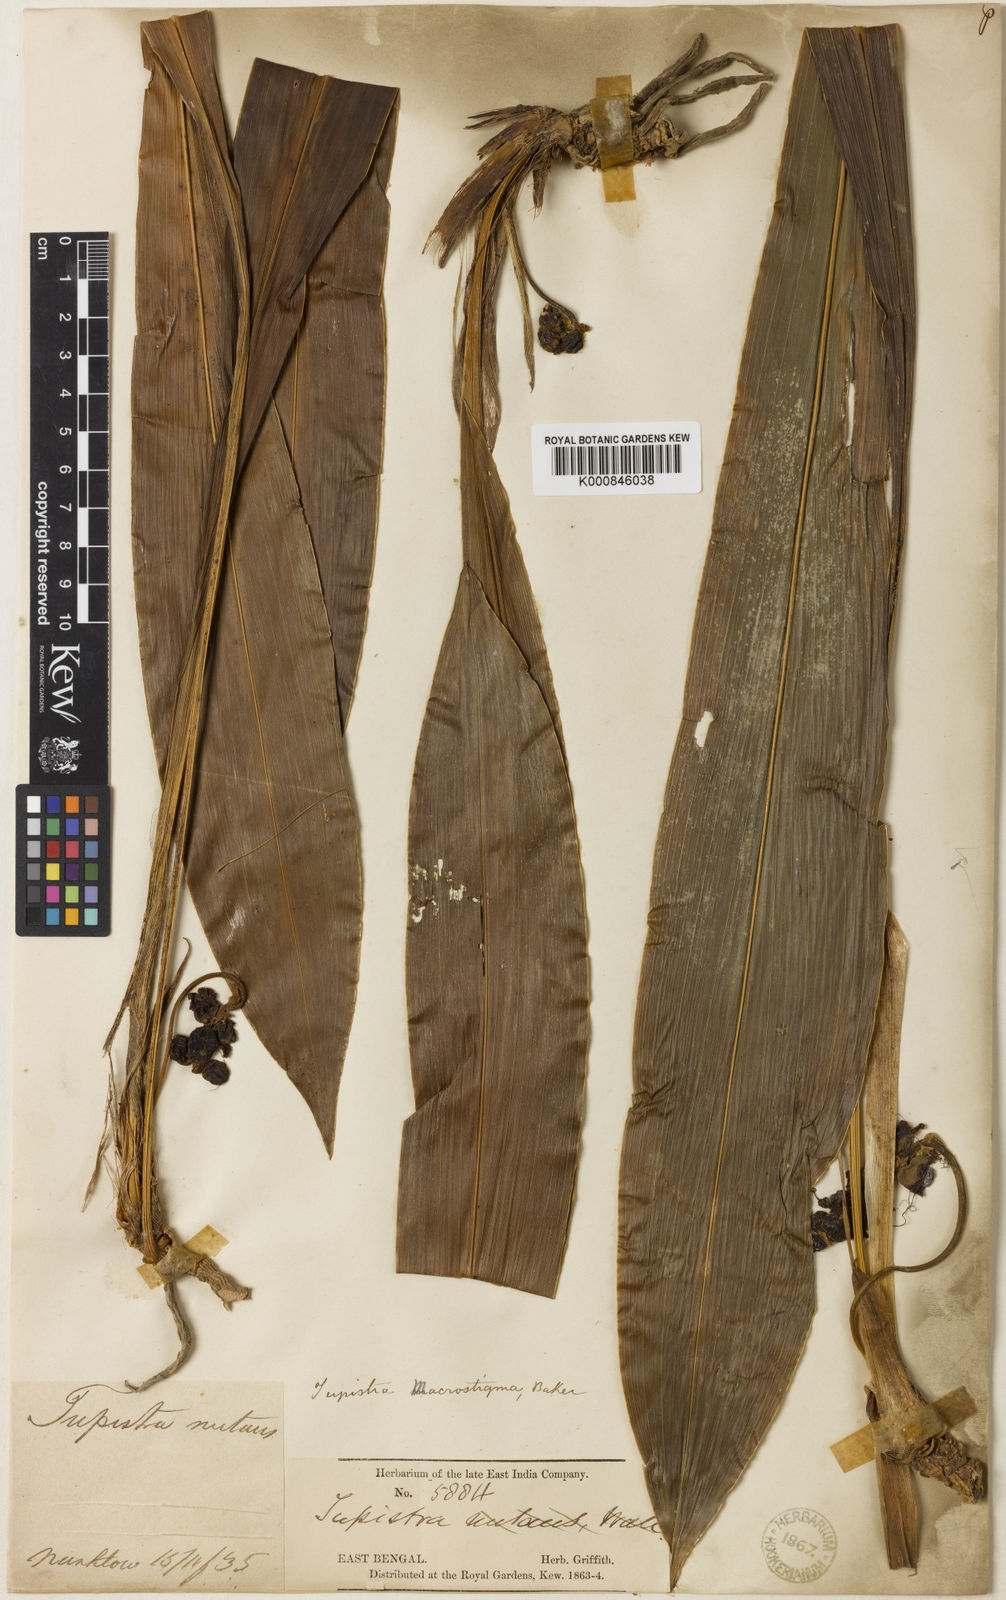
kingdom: Plantae
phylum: Tracheophyta
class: Liliopsida
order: Asparagales
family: Asparagaceae
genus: Tupistra
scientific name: Tupistra squalida
